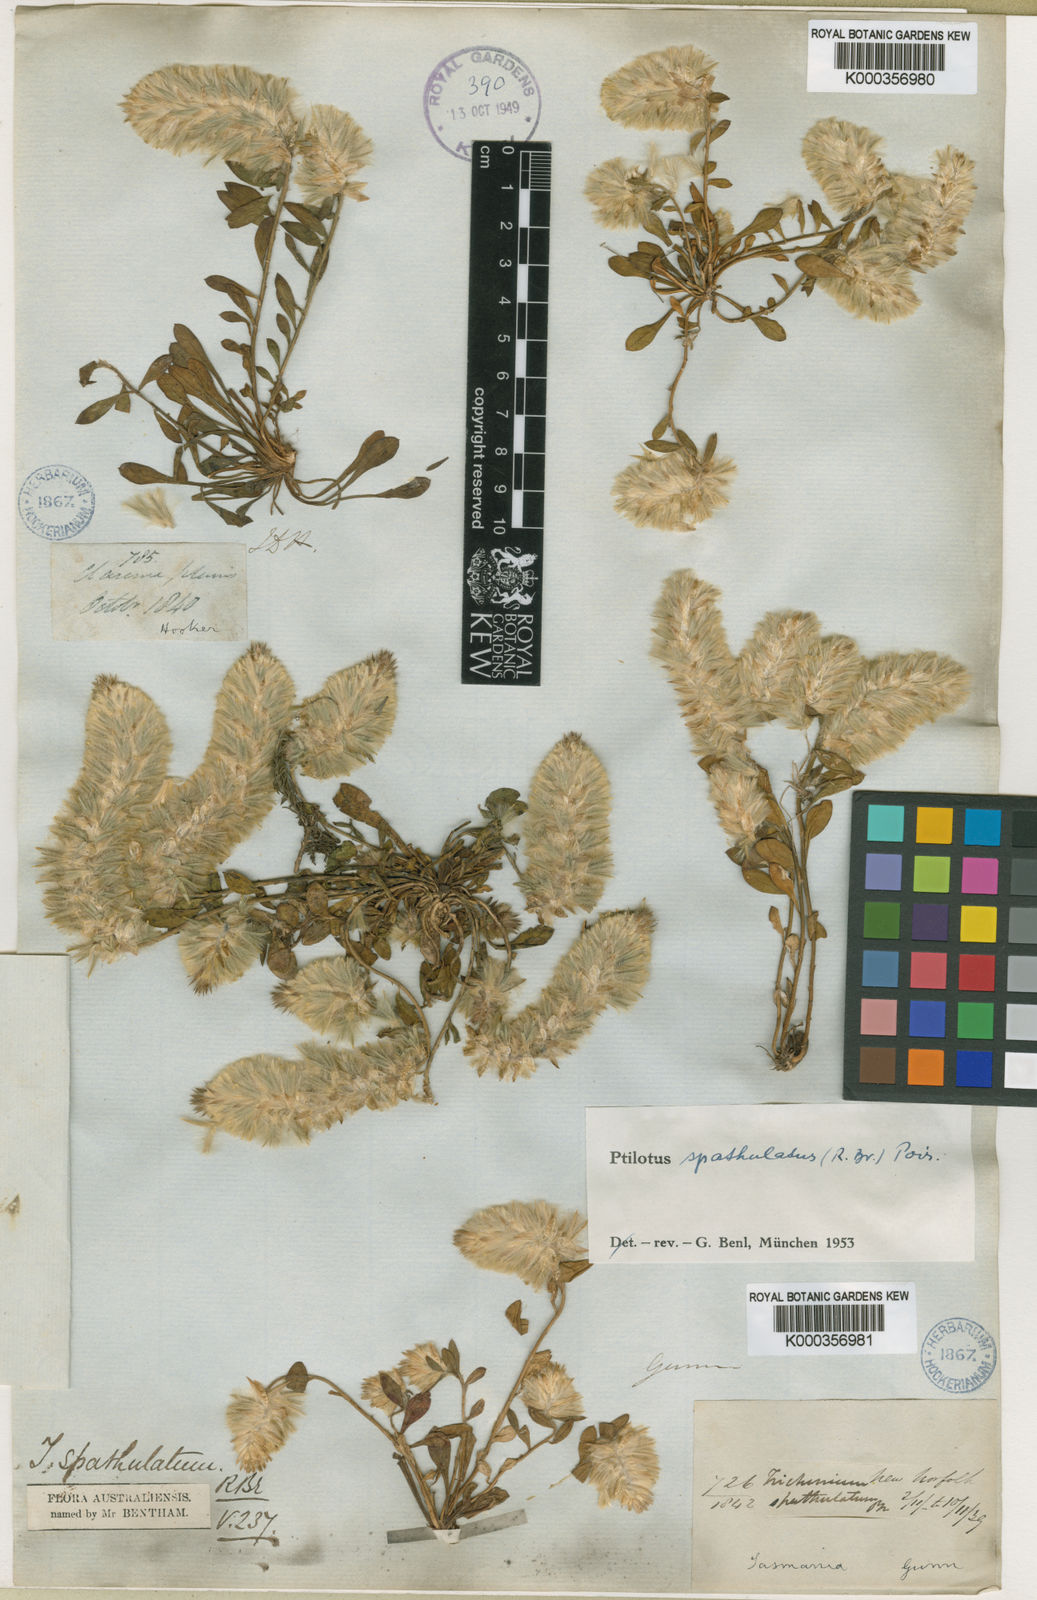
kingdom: Plantae
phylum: Tracheophyta
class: Magnoliopsida
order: Caryophyllales
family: Amaranthaceae
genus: Ptilotus
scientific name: Ptilotus spathulatus
